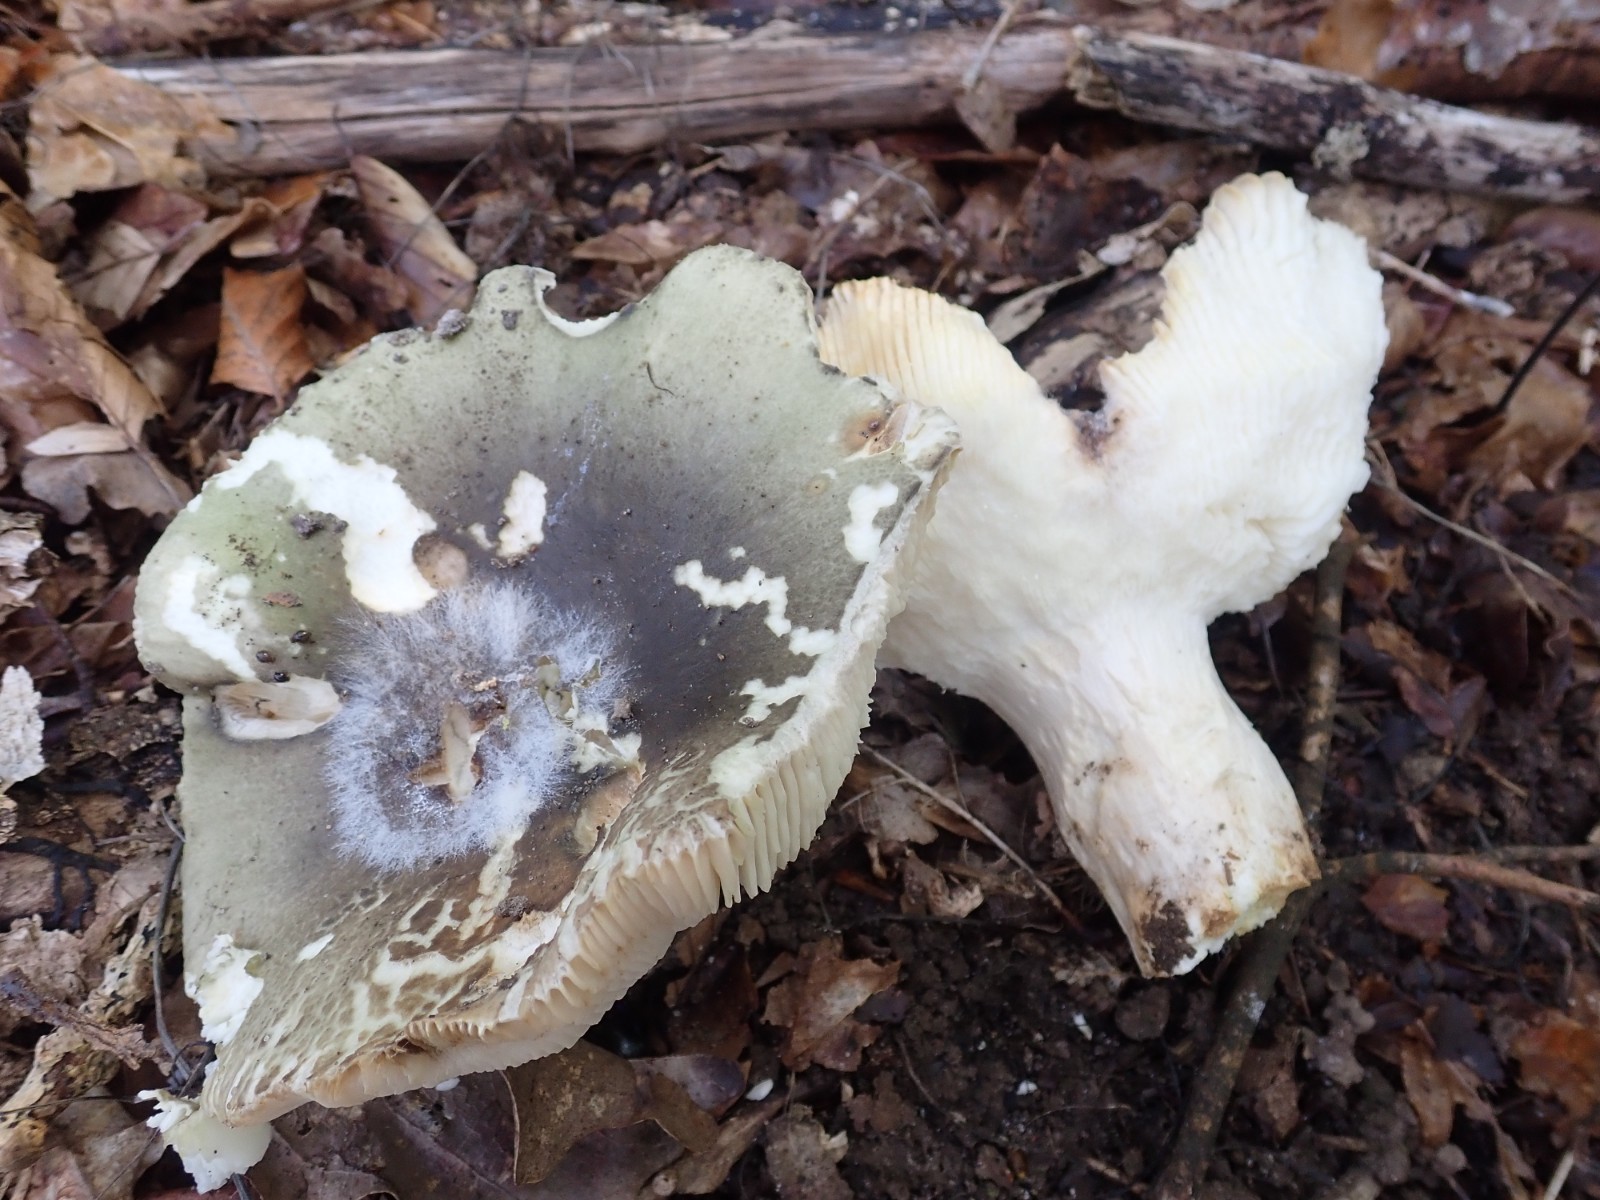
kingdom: Fungi
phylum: Basidiomycota
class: Agaricomycetes
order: Russulales
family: Russulaceae
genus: Russula
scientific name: Russula aeruginea
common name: græsgrøn skørhat
